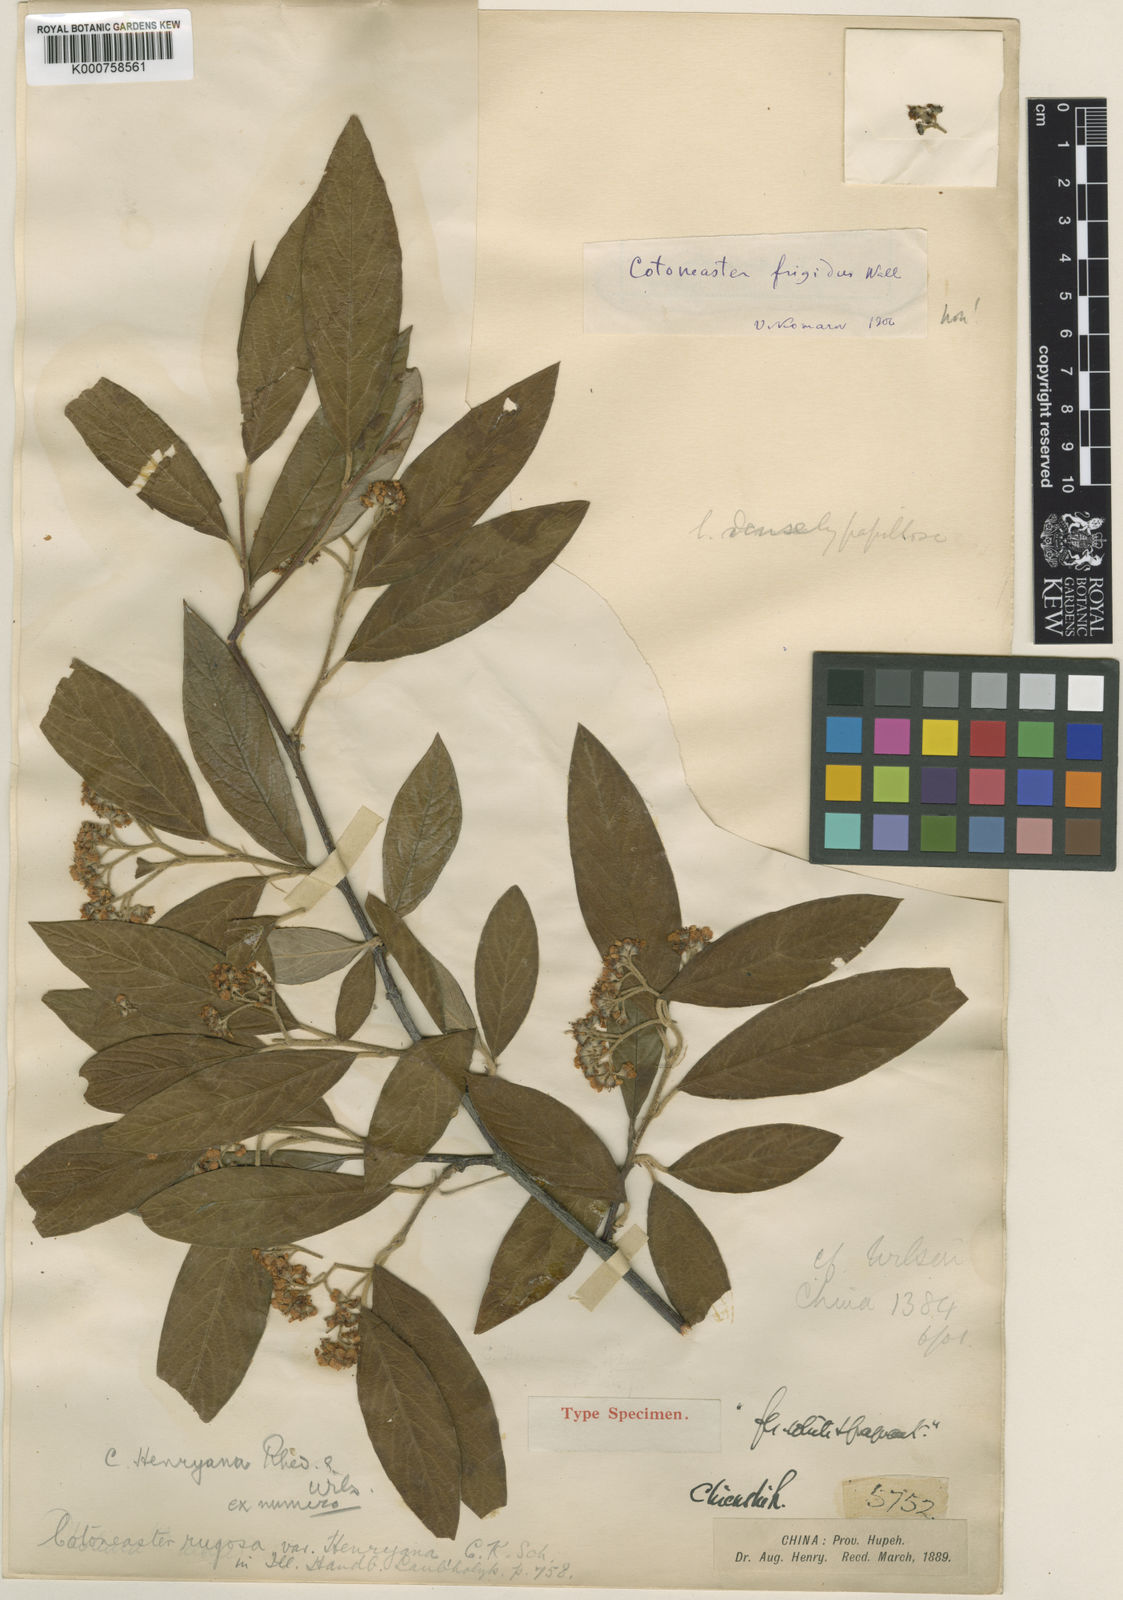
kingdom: Plantae
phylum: Tracheophyta
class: Magnoliopsida
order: Rosales
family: Rosaceae
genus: Cotoneaster
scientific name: Cotoneaster rhytidophyllus
